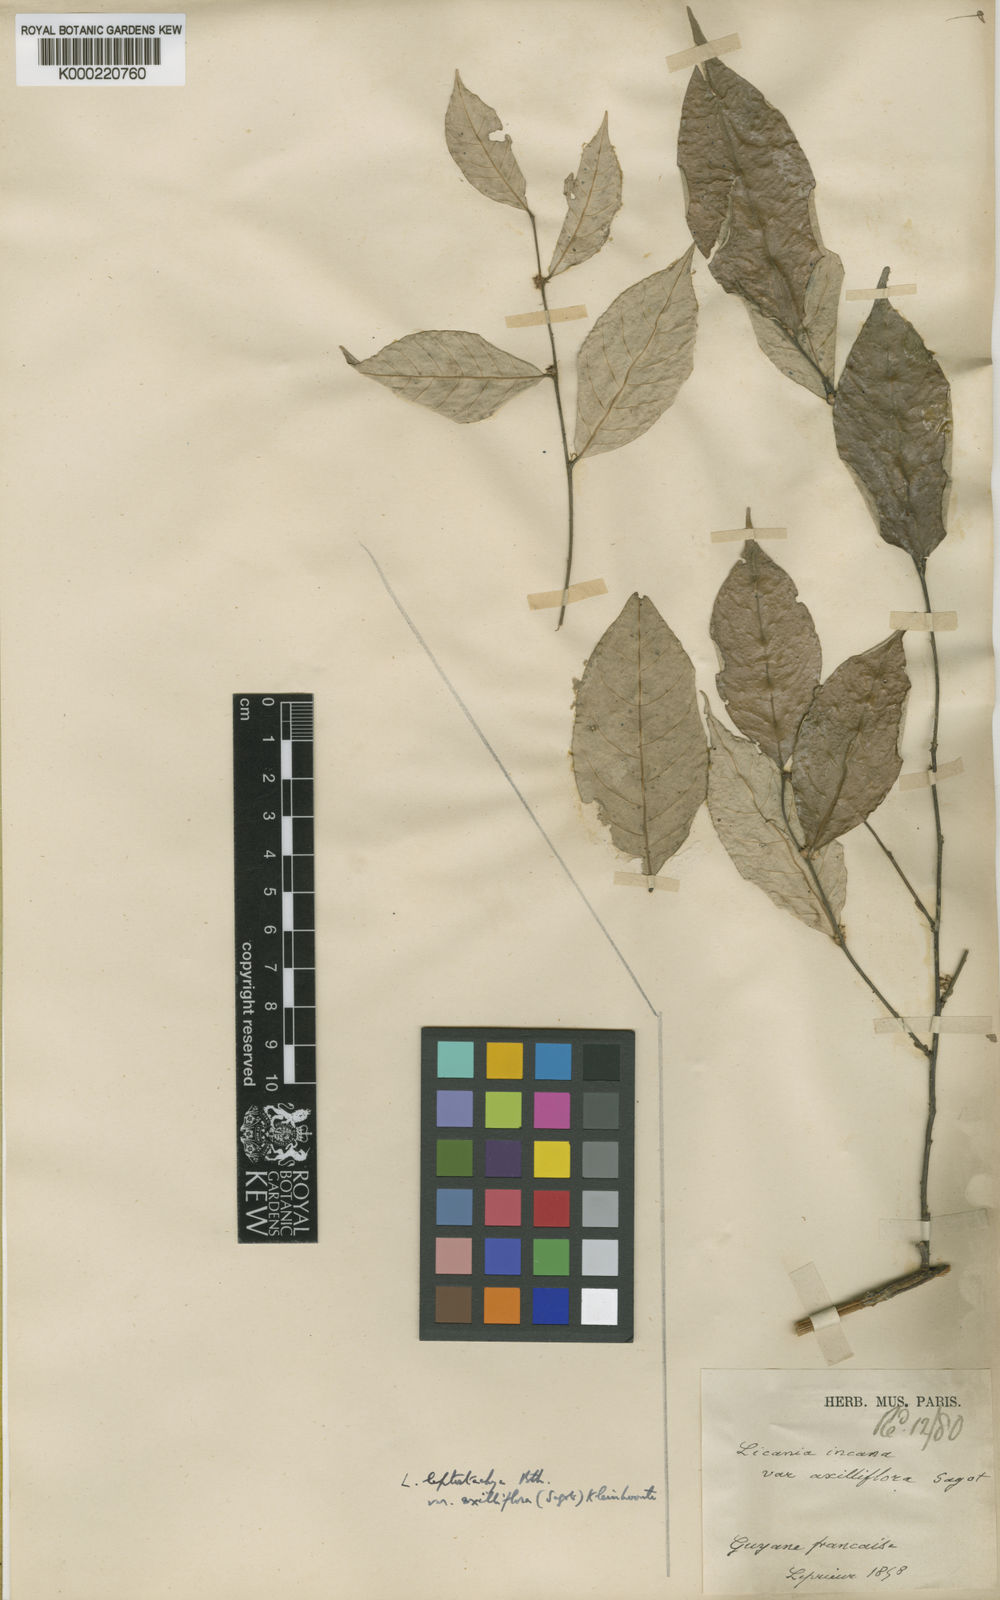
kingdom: Plantae
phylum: Tracheophyta
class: Magnoliopsida
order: Malpighiales
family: Chrysobalanaceae
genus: Licania
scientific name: Licania leptostachya
